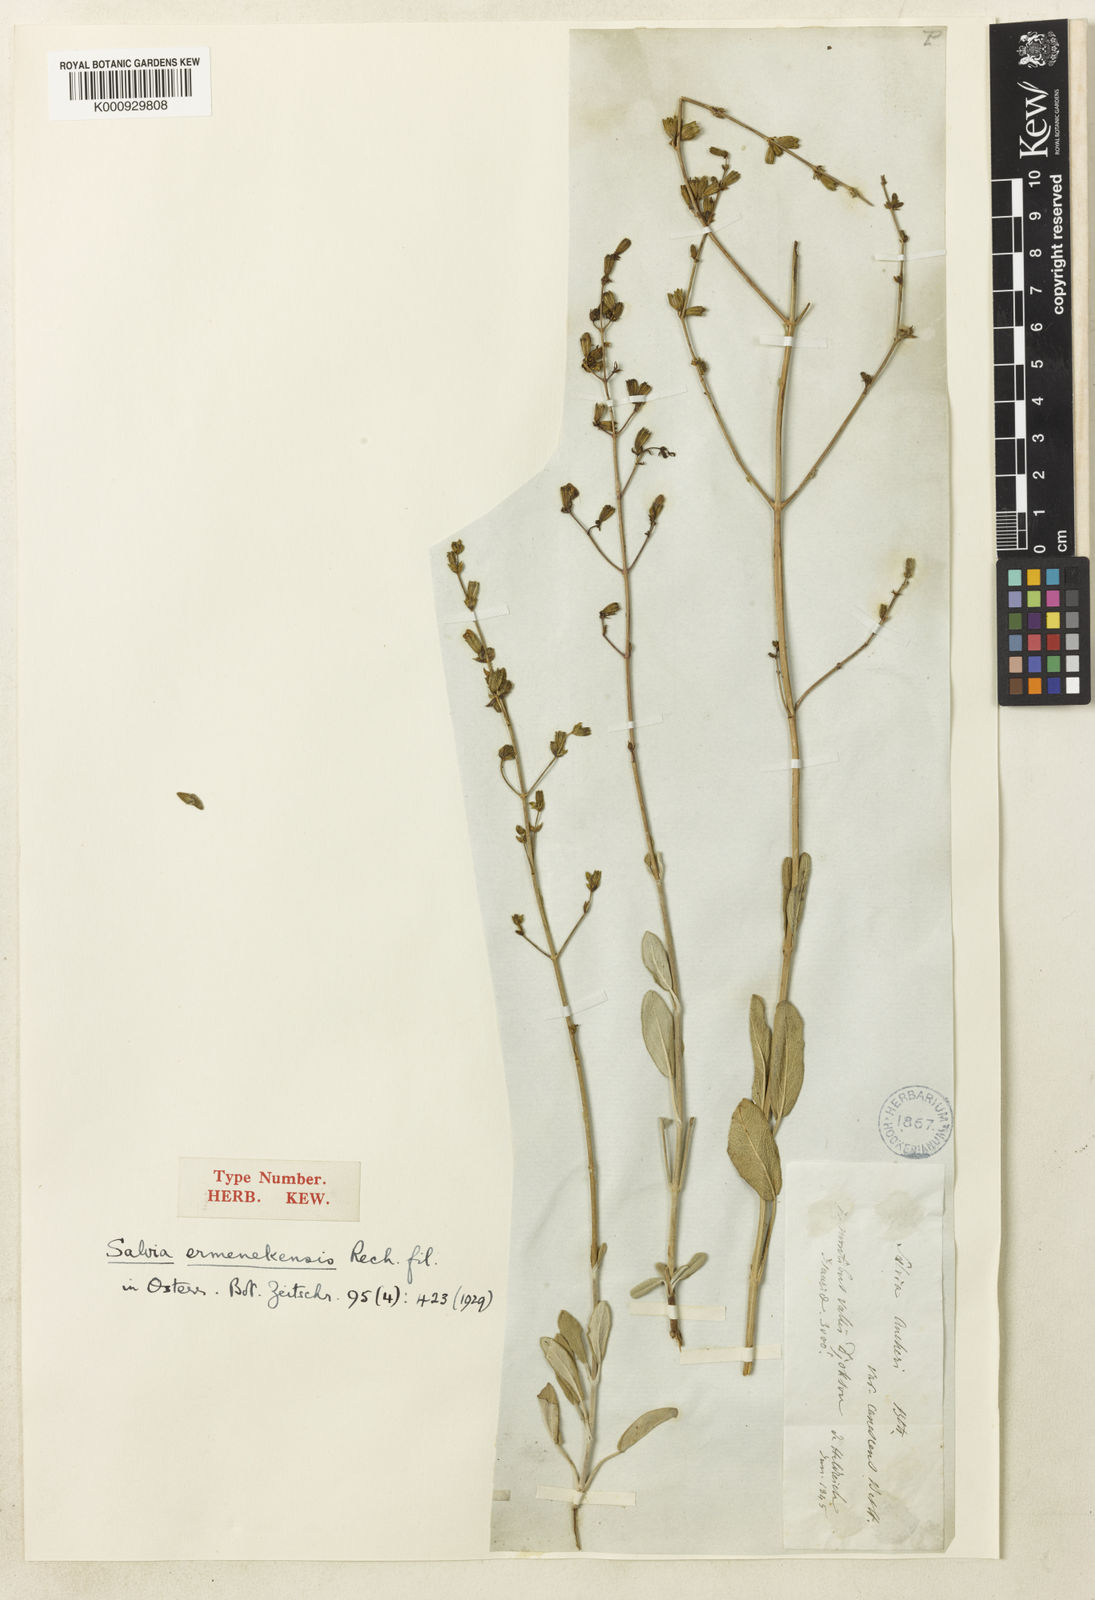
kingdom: Plantae
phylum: Tracheophyta
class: Magnoliopsida
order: Lamiales
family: Lamiaceae
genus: Salvia
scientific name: Salvia aucheri
